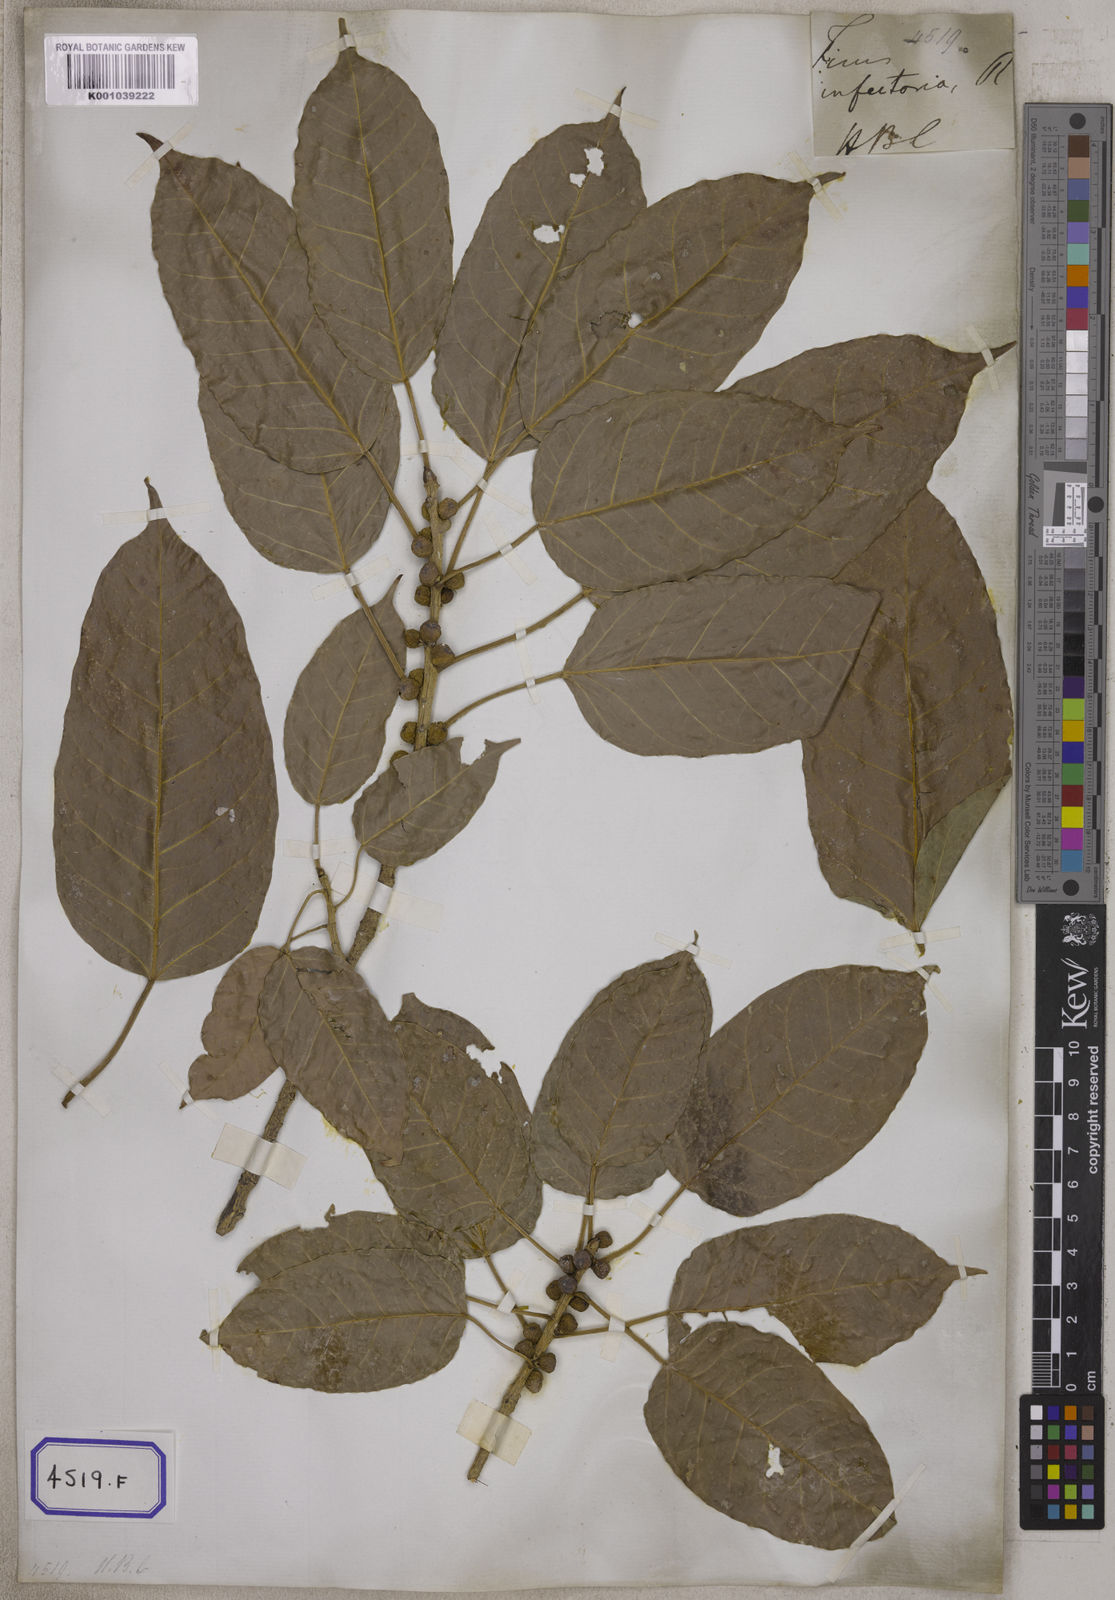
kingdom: Plantae
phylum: Tracheophyta
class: Magnoliopsida
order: Rosales
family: Moraceae
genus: Ficus
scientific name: Ficus
